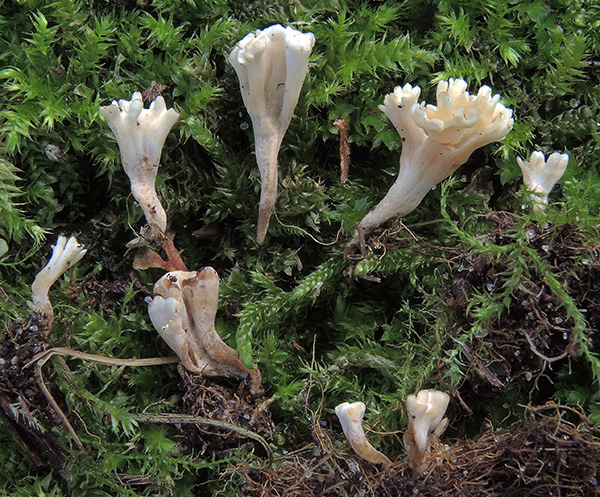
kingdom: Fungi
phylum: Basidiomycota
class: Agaricomycetes
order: Polyporales
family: Podoscyphaceae
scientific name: Podoscyphaceae
